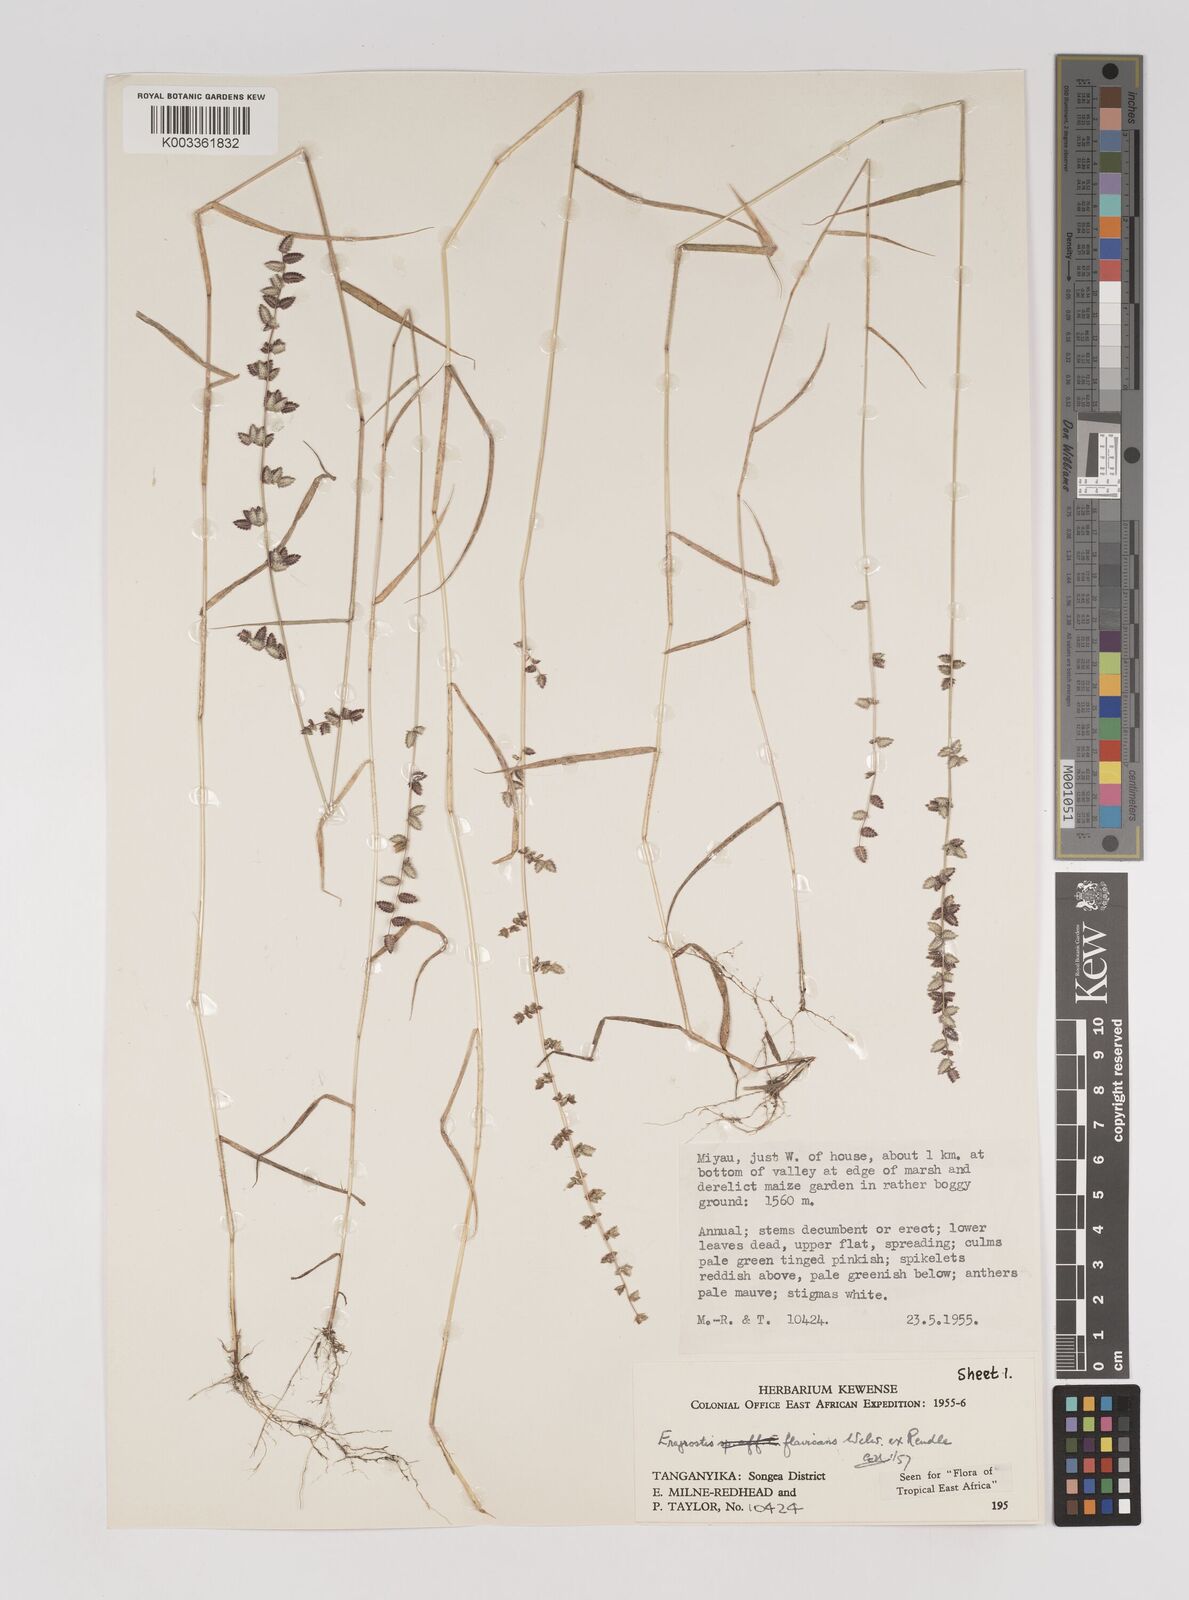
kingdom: Plantae
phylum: Tracheophyta
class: Liliopsida
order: Poales
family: Poaceae
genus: Eragrostis
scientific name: Eragrostis flavicans
